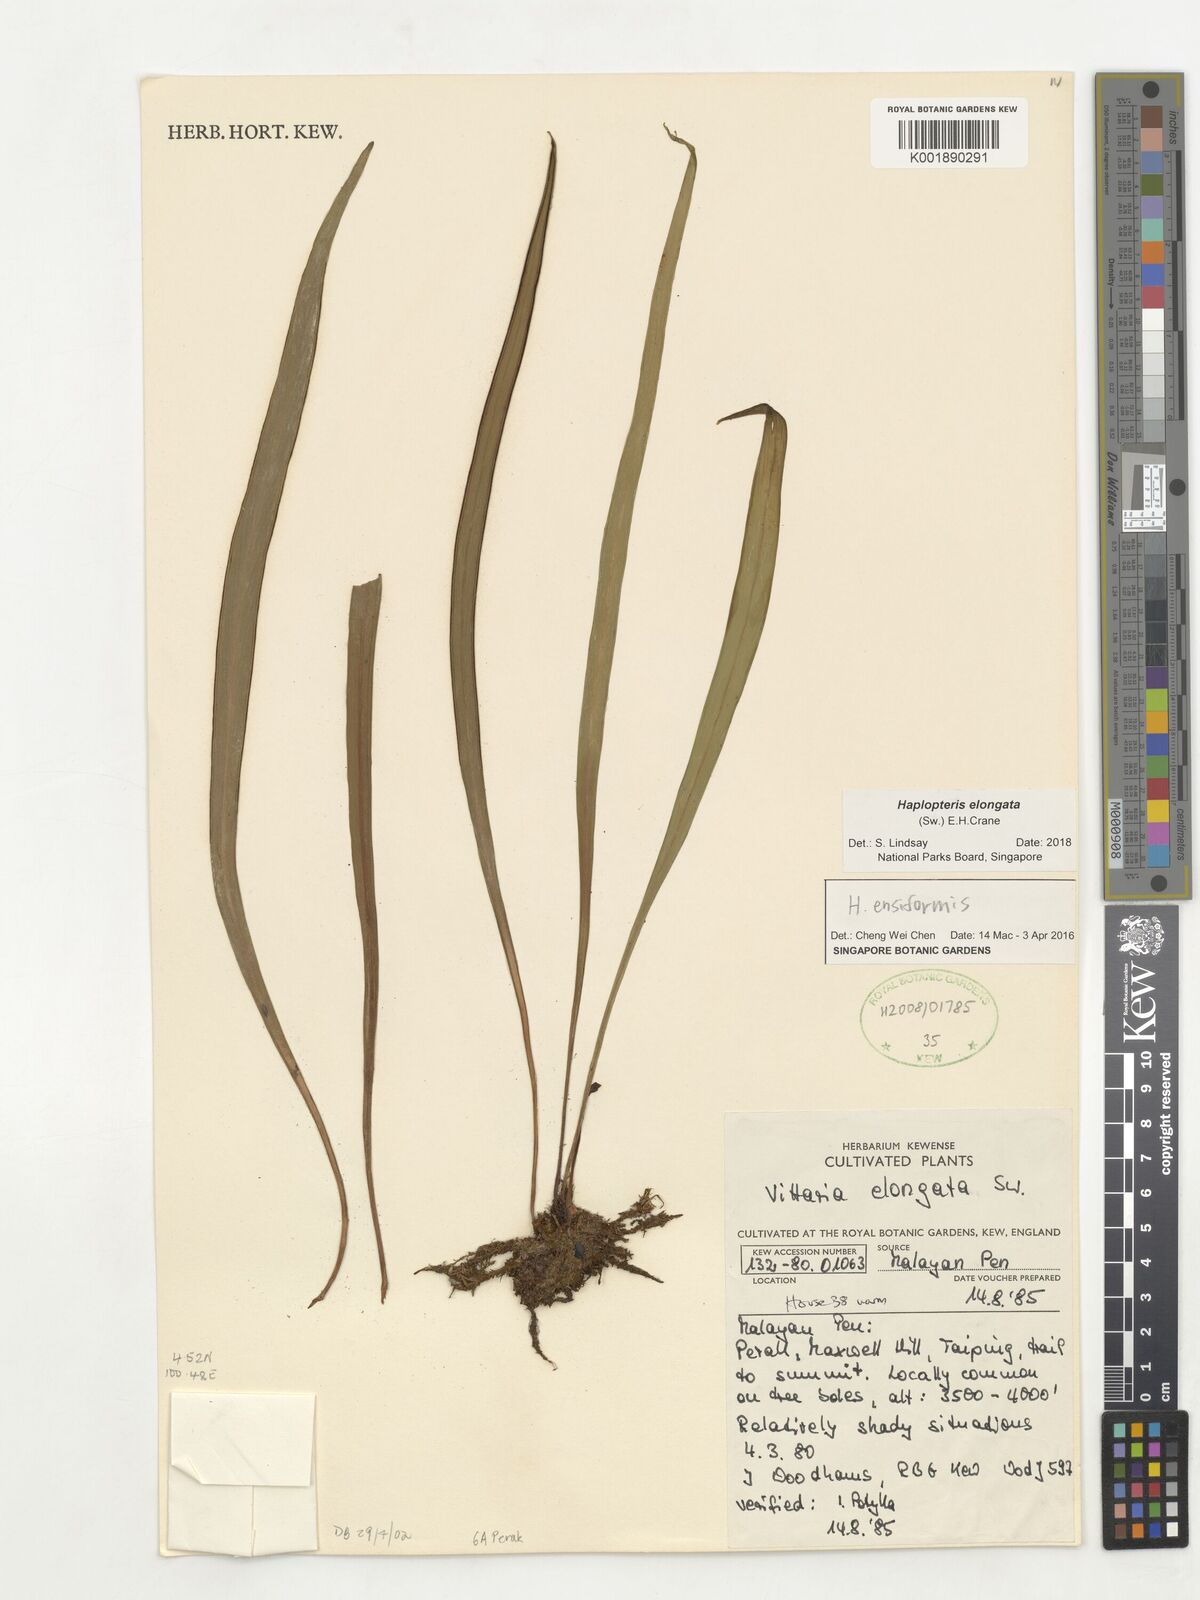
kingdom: Plantae
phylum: Tracheophyta
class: Polypodiopsida
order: Polypodiales
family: Pteridaceae
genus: Haplopteris
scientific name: Haplopteris elongata
